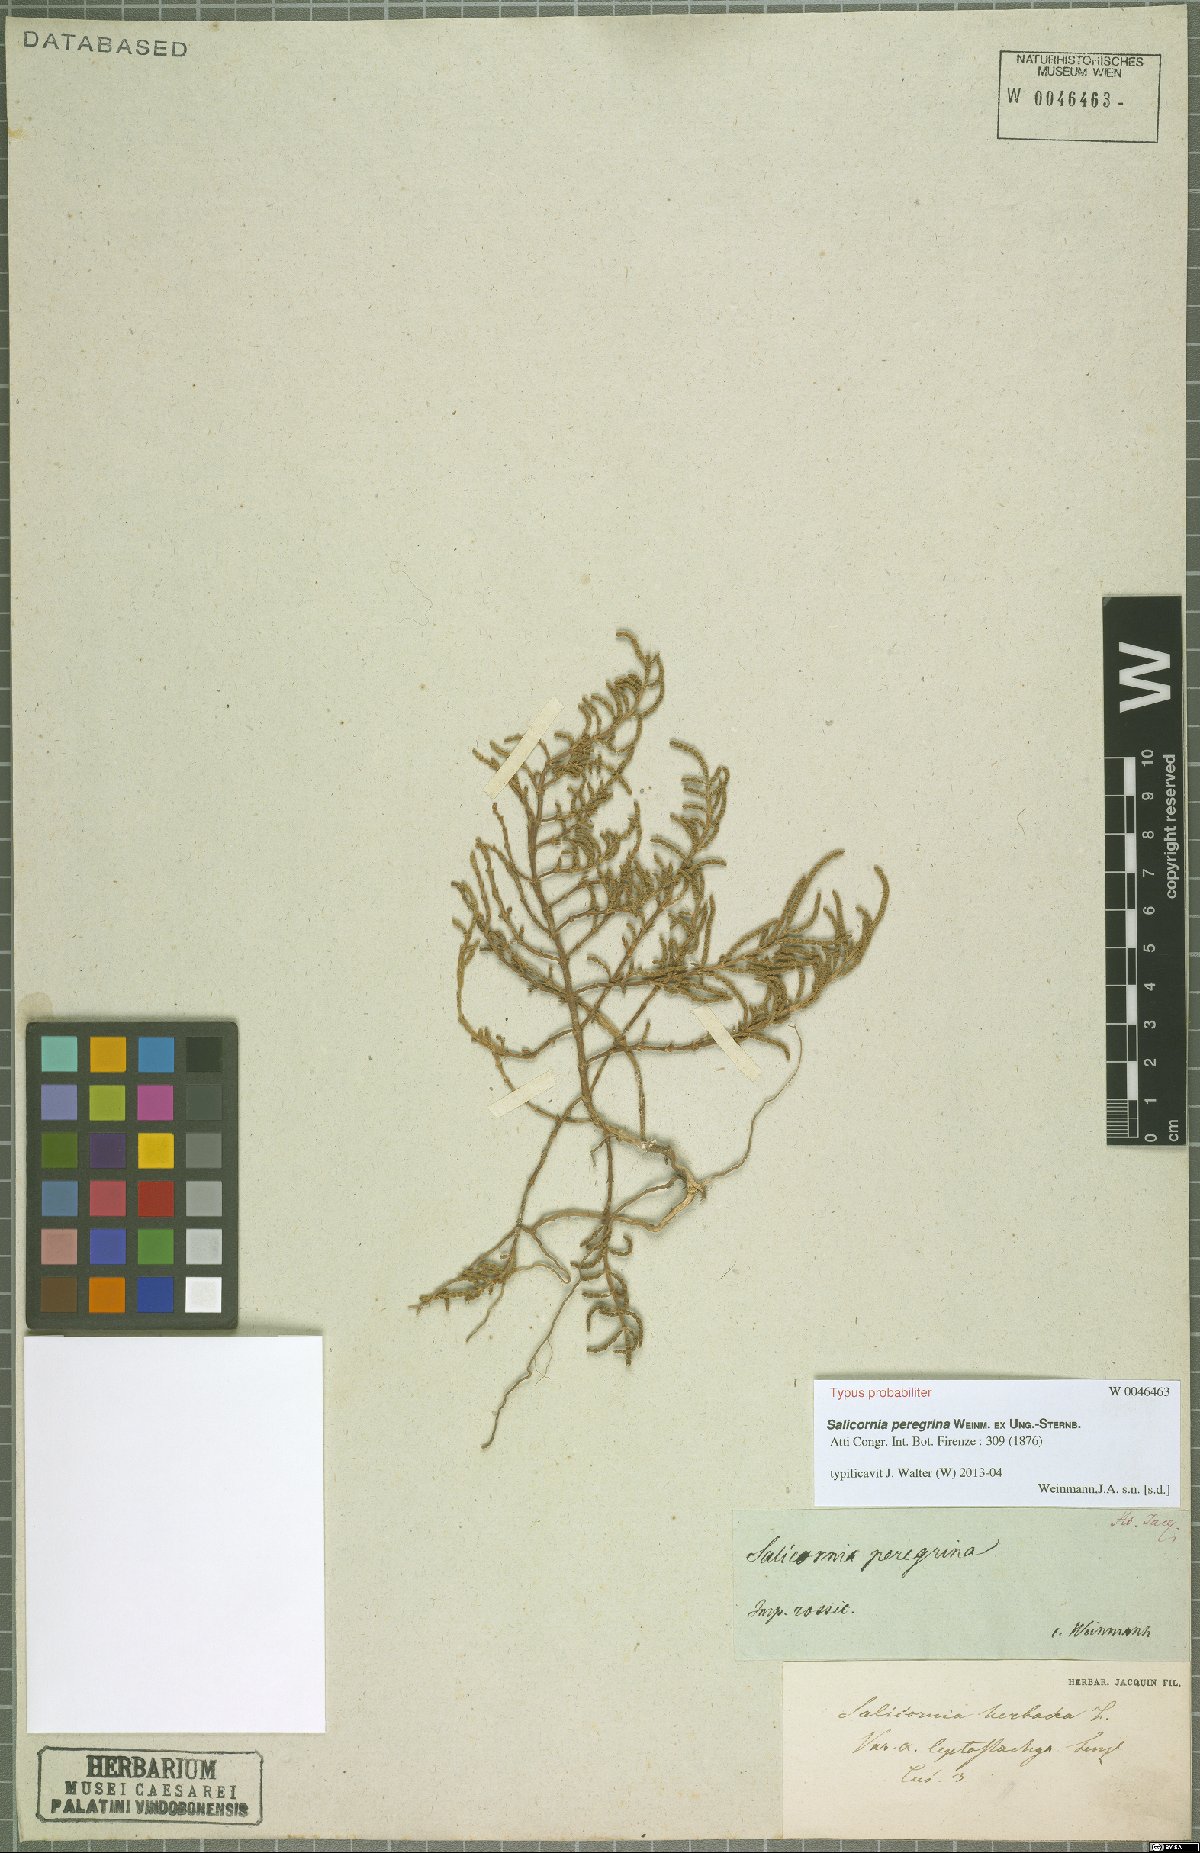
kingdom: Plantae
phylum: Tracheophyta
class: Magnoliopsida
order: Caryophyllales
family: Amaranthaceae
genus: Salicornia
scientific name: Salicornia europaea
